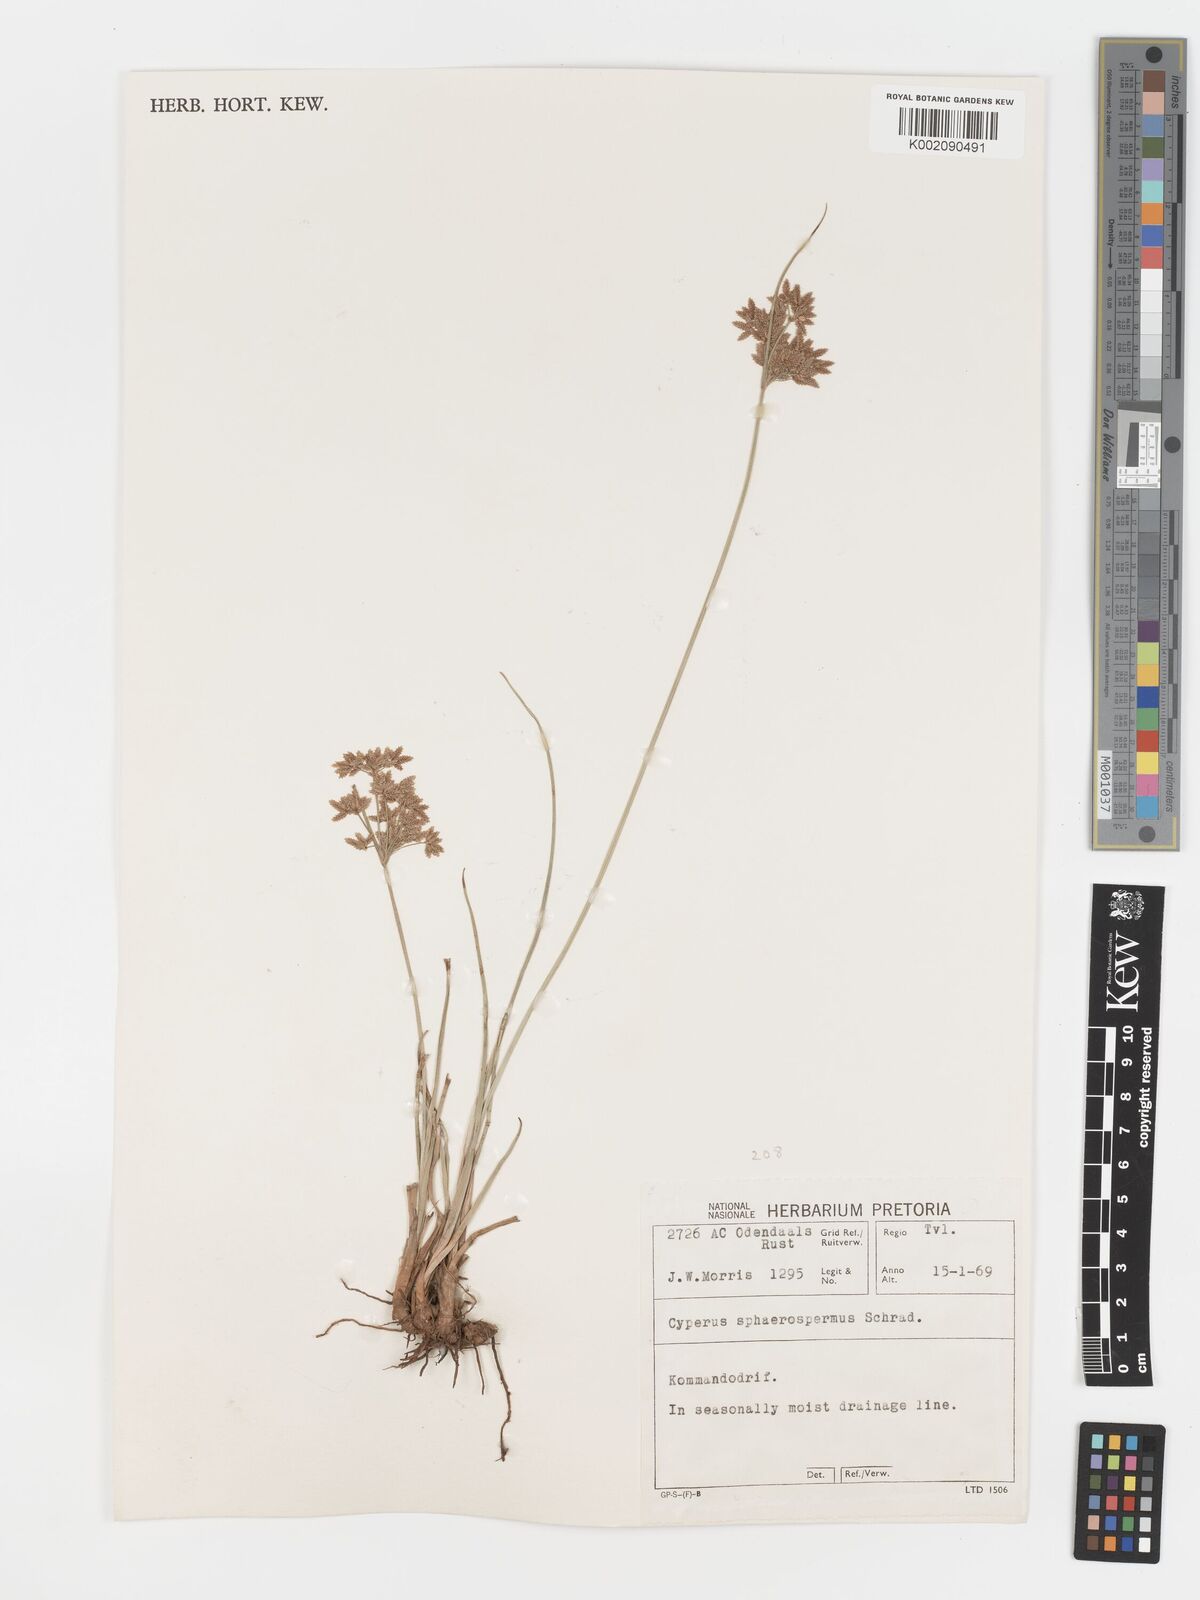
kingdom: Plantae
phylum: Tracheophyta
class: Liliopsida
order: Poales
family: Cyperaceae
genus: Cyperus
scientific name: Cyperus sphaerospermus
